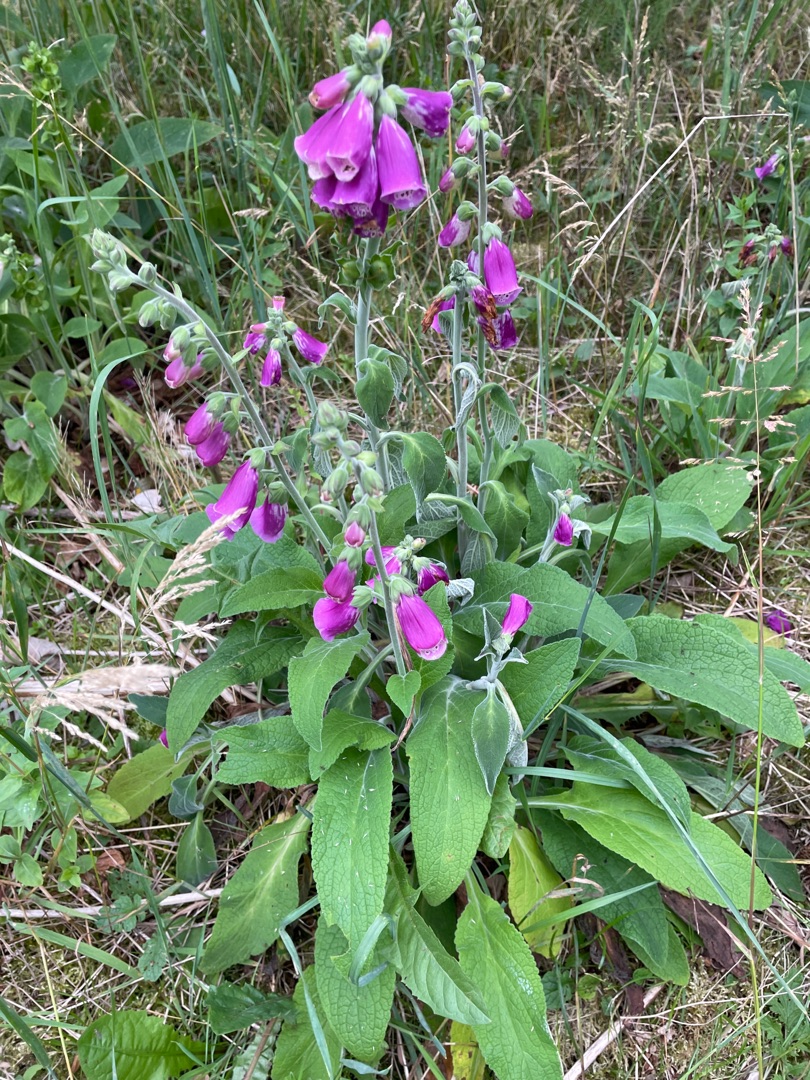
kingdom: Plantae
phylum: Tracheophyta
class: Magnoliopsida
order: Lamiales
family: Plantaginaceae
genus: Digitalis
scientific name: Digitalis purpurea
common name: Almindelig fingerbøl
